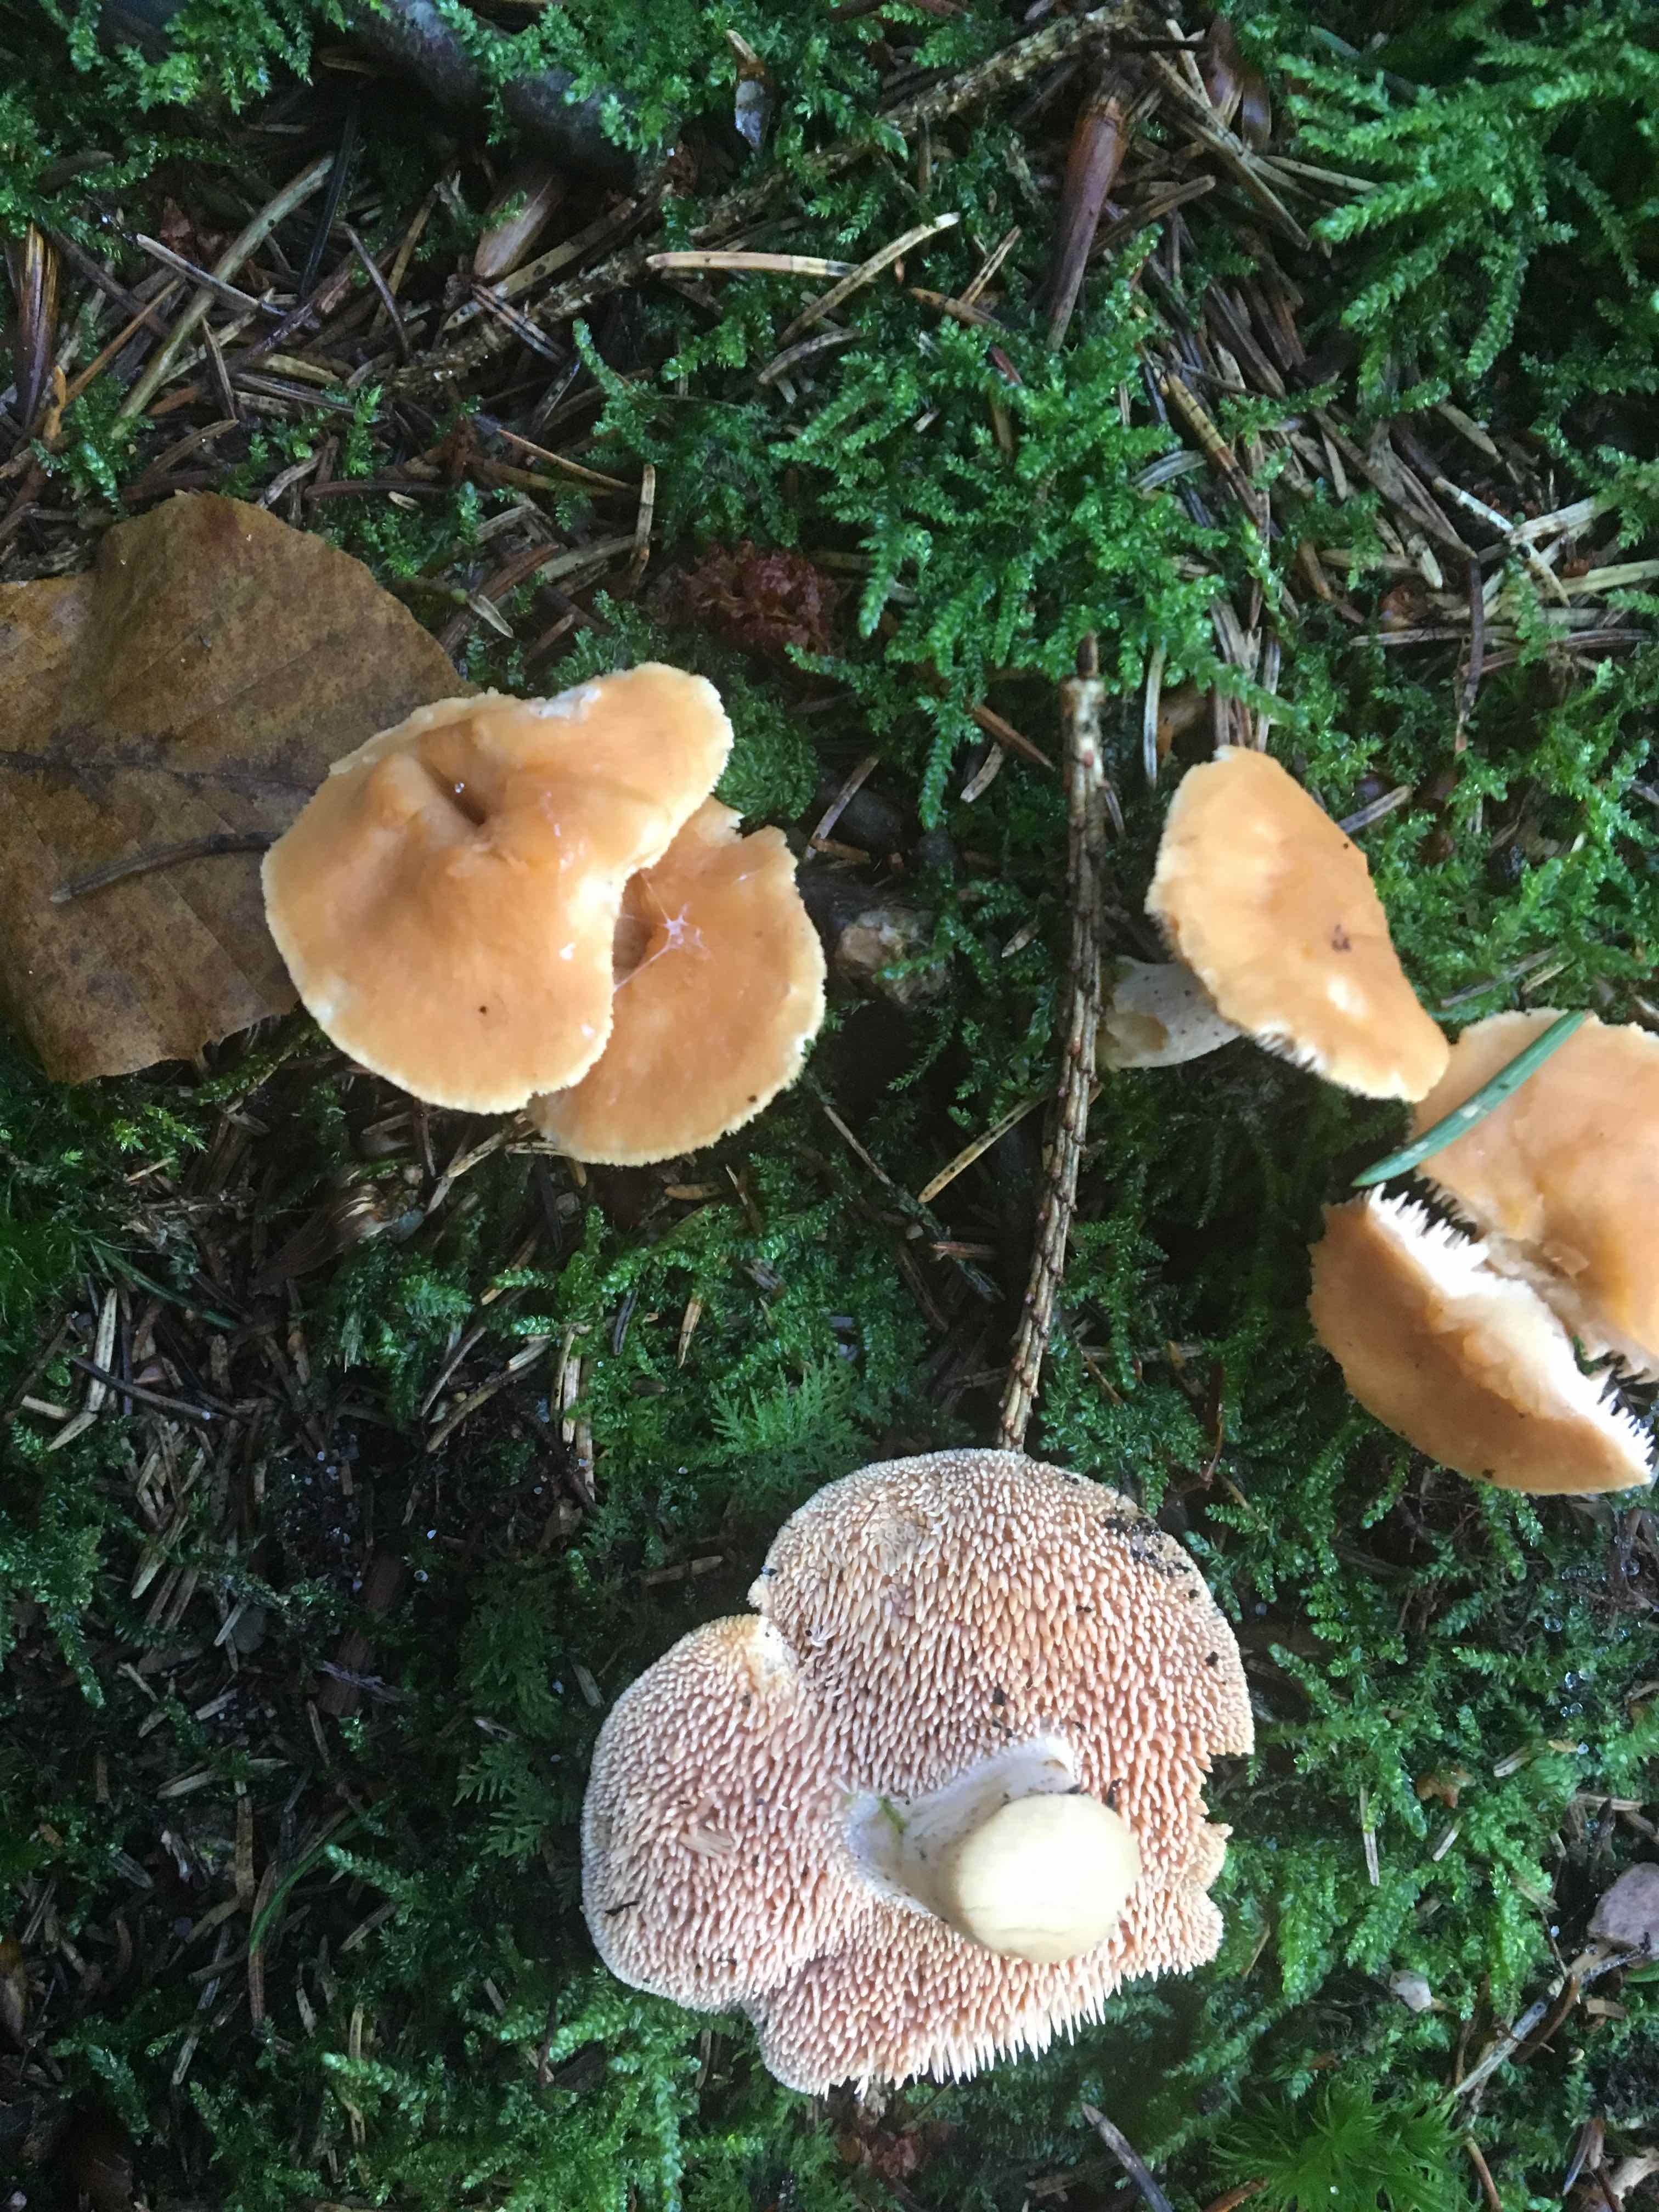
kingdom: Fungi
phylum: Basidiomycota
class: Agaricomycetes
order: Cantharellales
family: Hydnaceae
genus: Hydnum
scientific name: Hydnum rufescens
